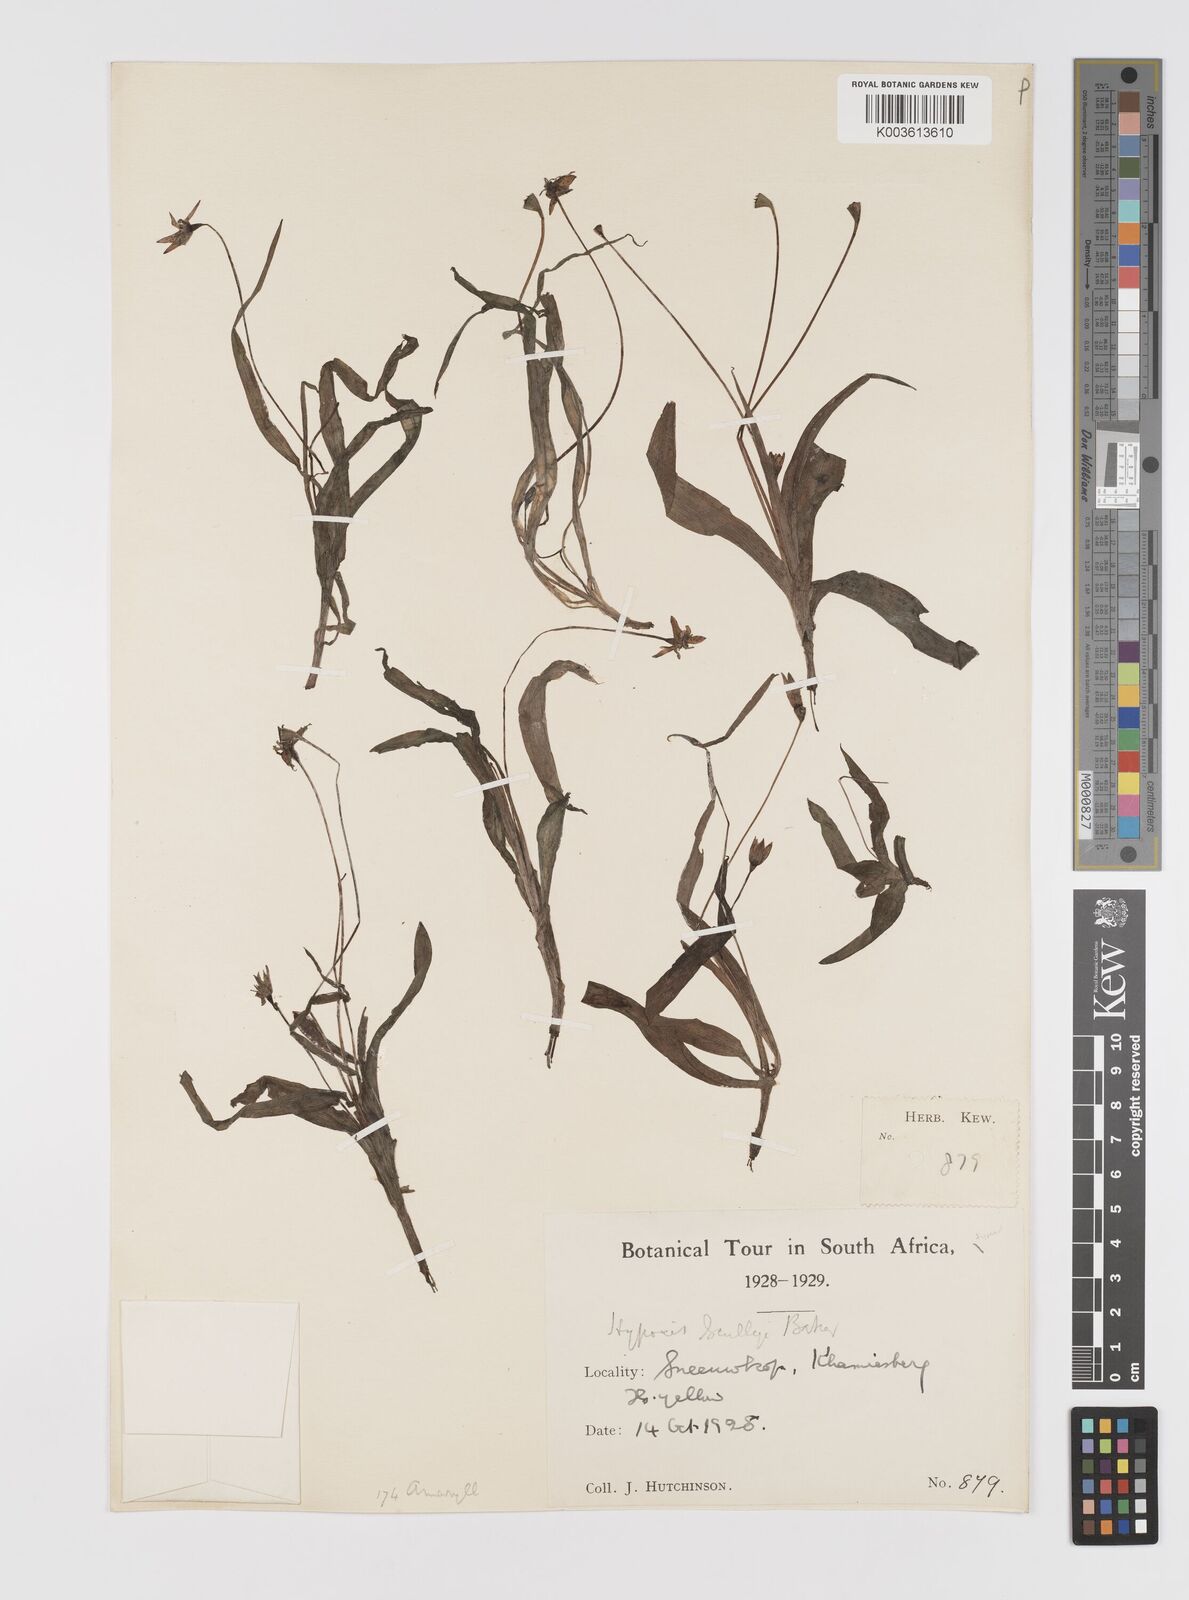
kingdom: Plantae
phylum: Tracheophyta
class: Liliopsida
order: Asparagales
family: Hypoxidaceae
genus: Pauridia
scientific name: Pauridia scullyi
